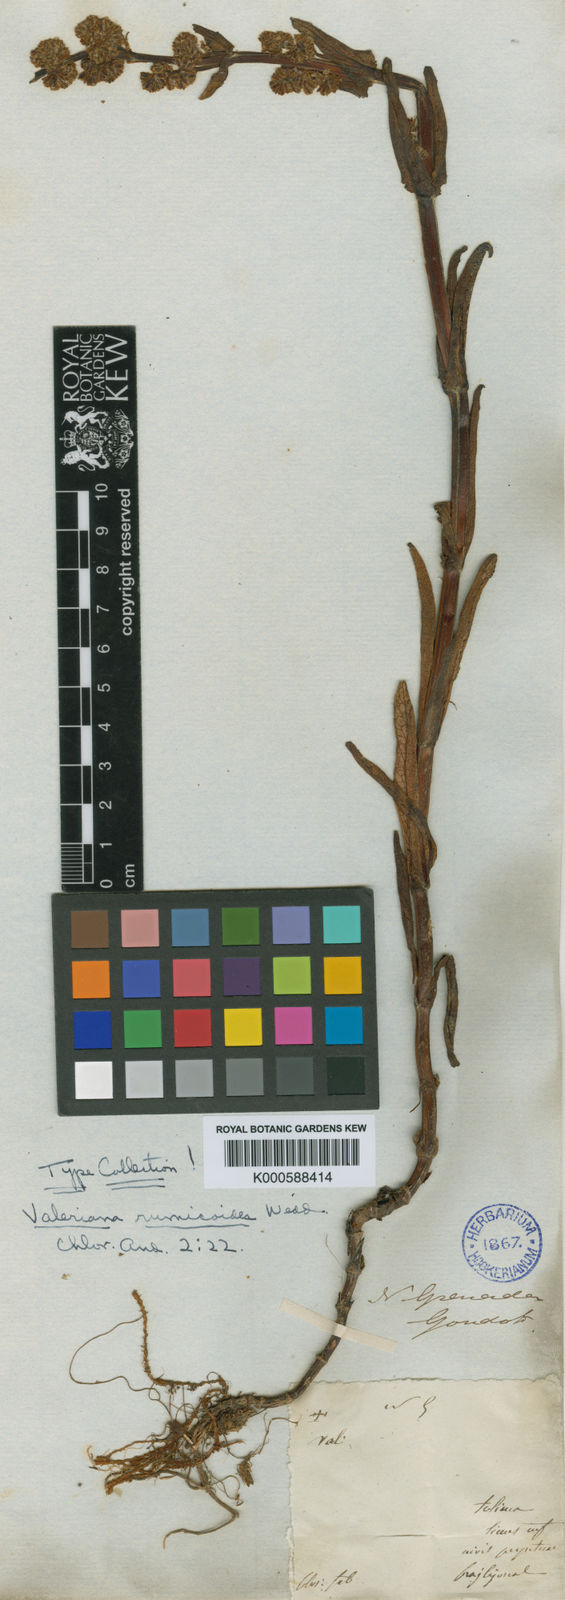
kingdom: Plantae
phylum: Tracheophyta
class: Magnoliopsida
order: Dipsacales
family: Caprifoliaceae
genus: Valeriana
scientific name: Valeriana rumicoides
